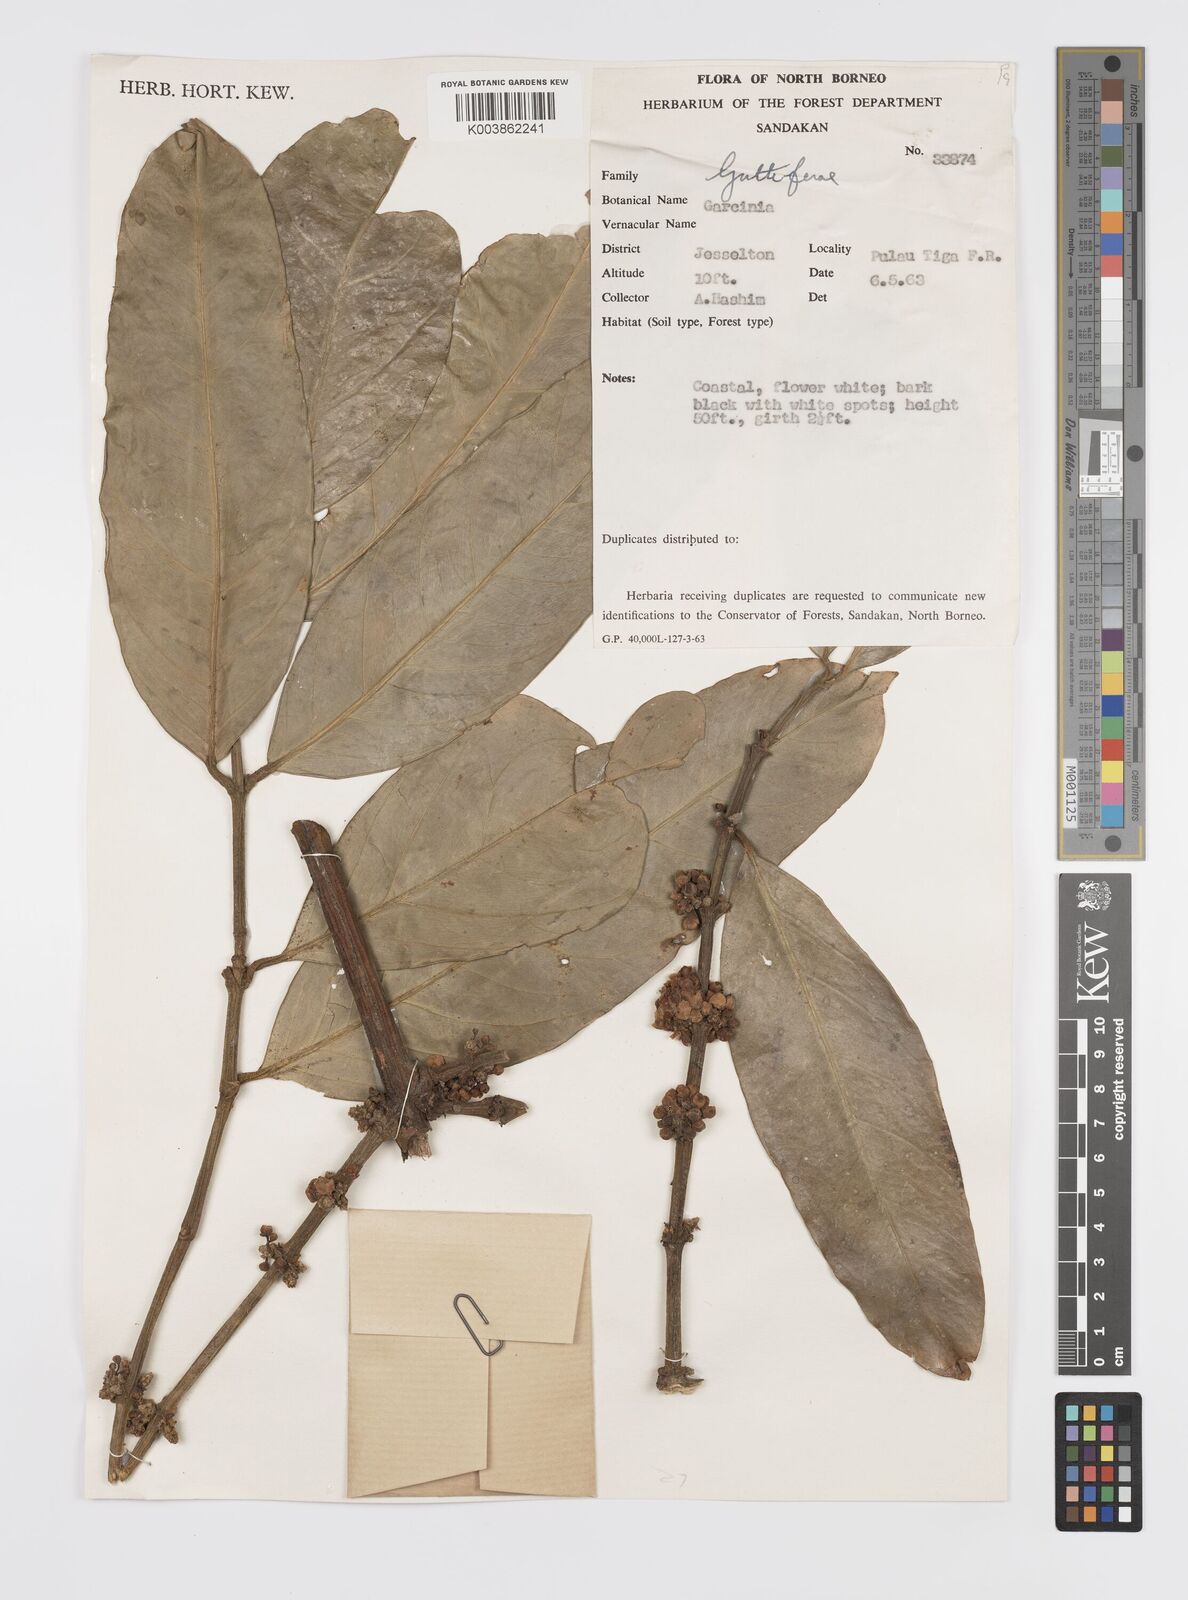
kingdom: Plantae
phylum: Tracheophyta
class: Magnoliopsida
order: Malpighiales
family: Clusiaceae
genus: Garcinia
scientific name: Garcinia
